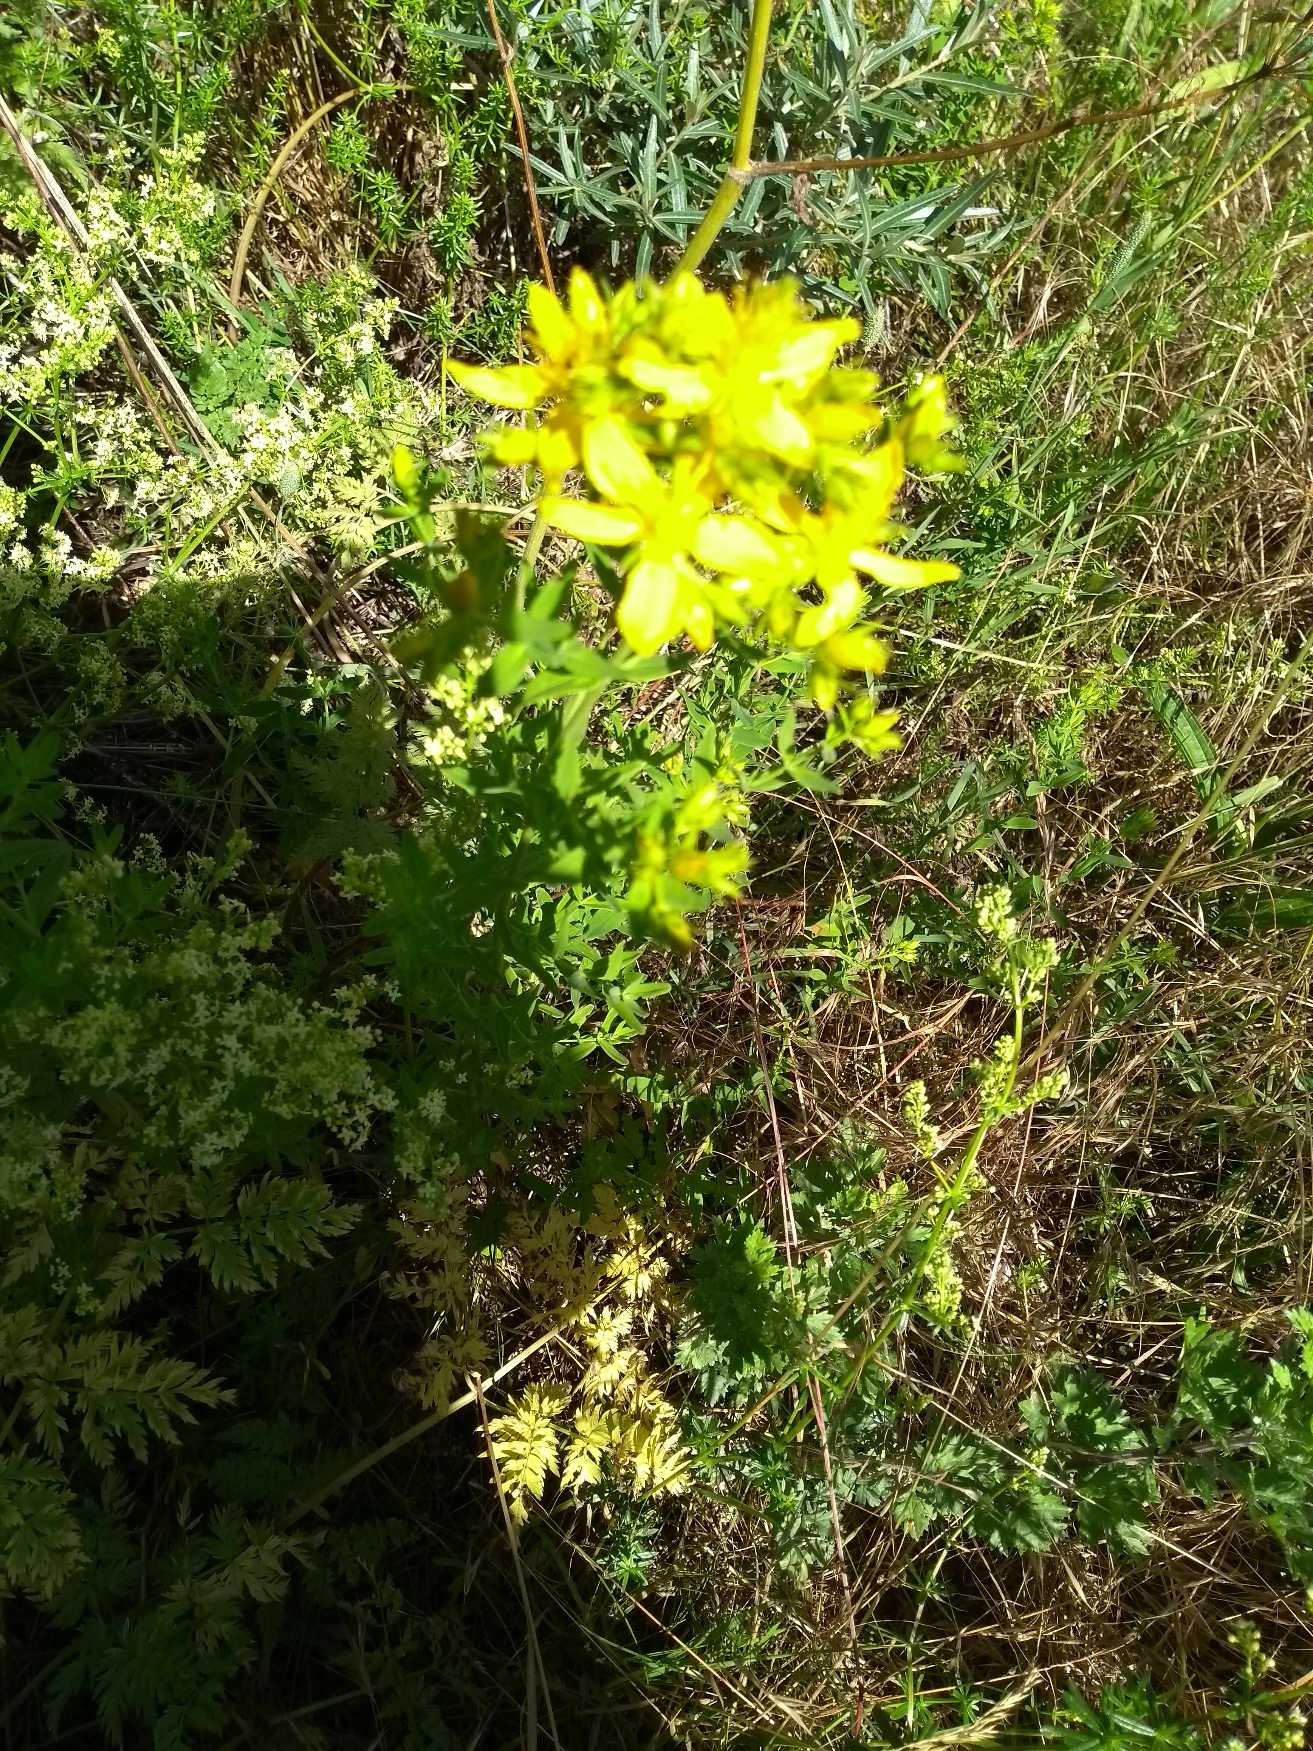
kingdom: Plantae
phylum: Tracheophyta
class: Magnoliopsida
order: Malpighiales
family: Hypericaceae
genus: Hypericum
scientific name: Hypericum perforatum
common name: Prikbladet perikon
